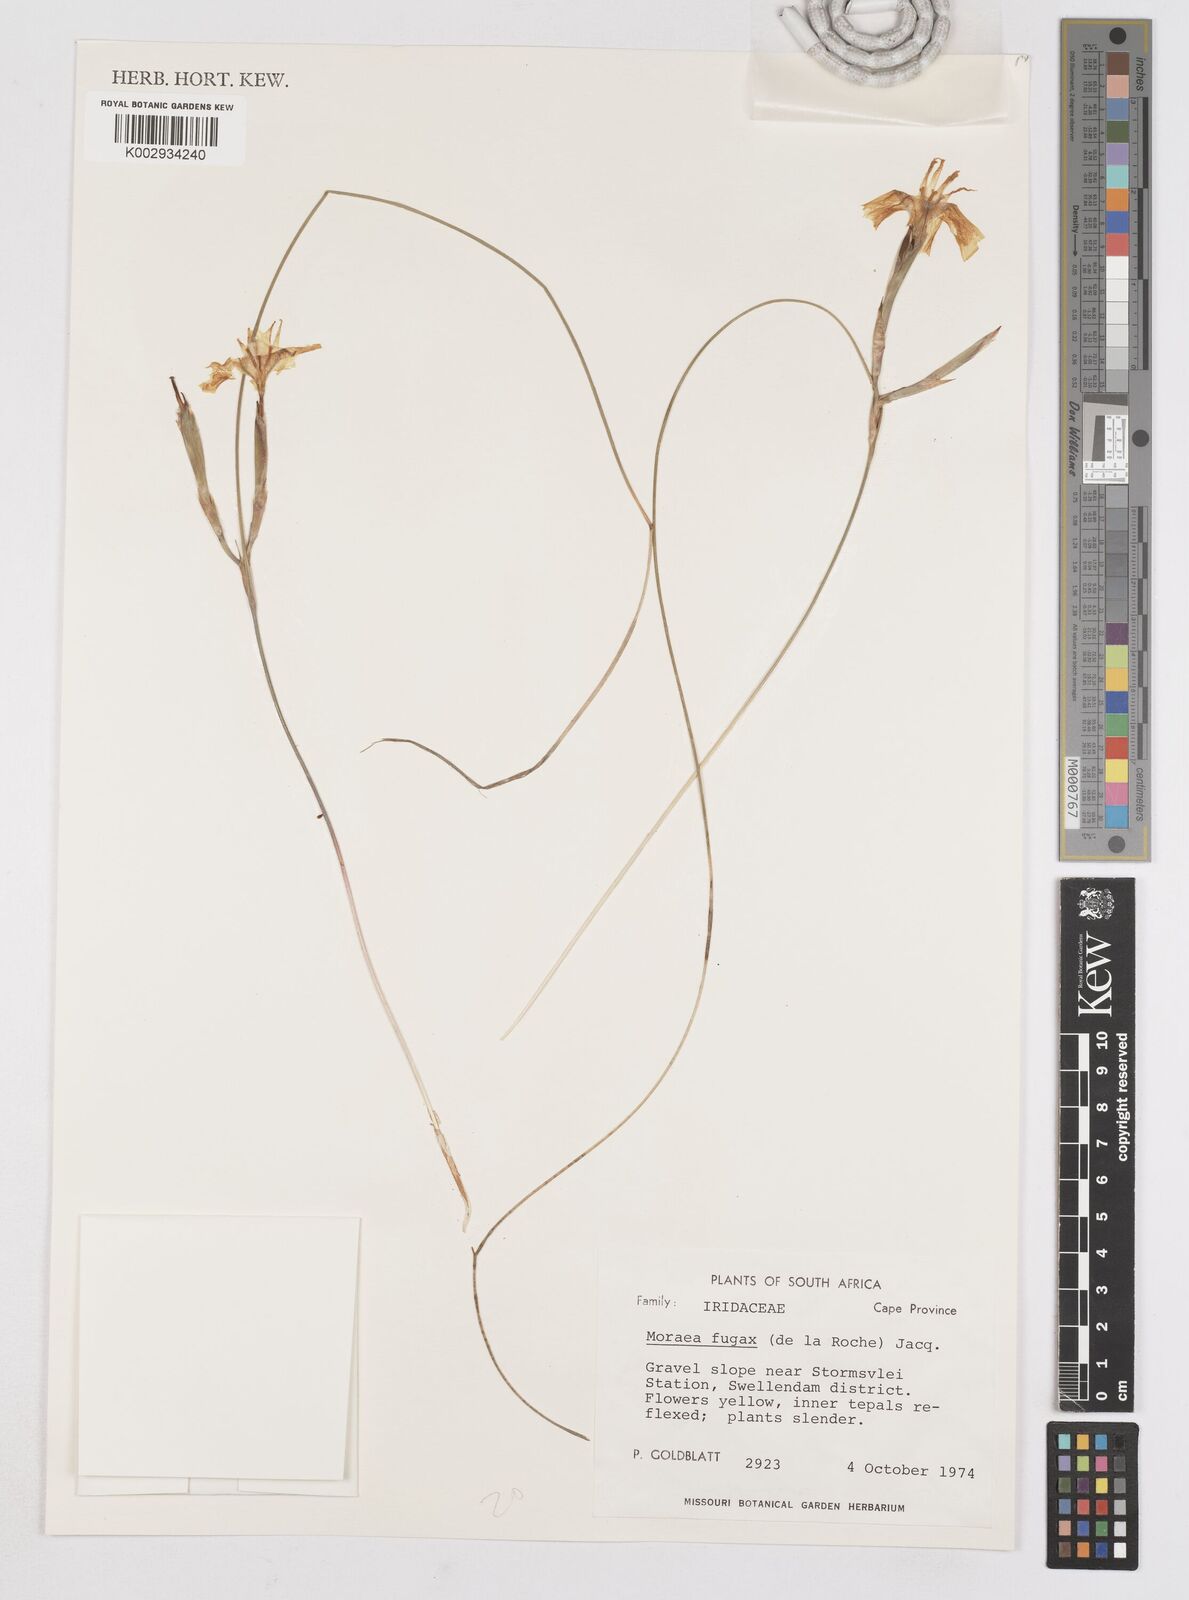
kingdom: Plantae
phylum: Tracheophyta
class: Liliopsida
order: Asparagales
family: Iridaceae
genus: Moraea
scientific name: Moraea fugax
